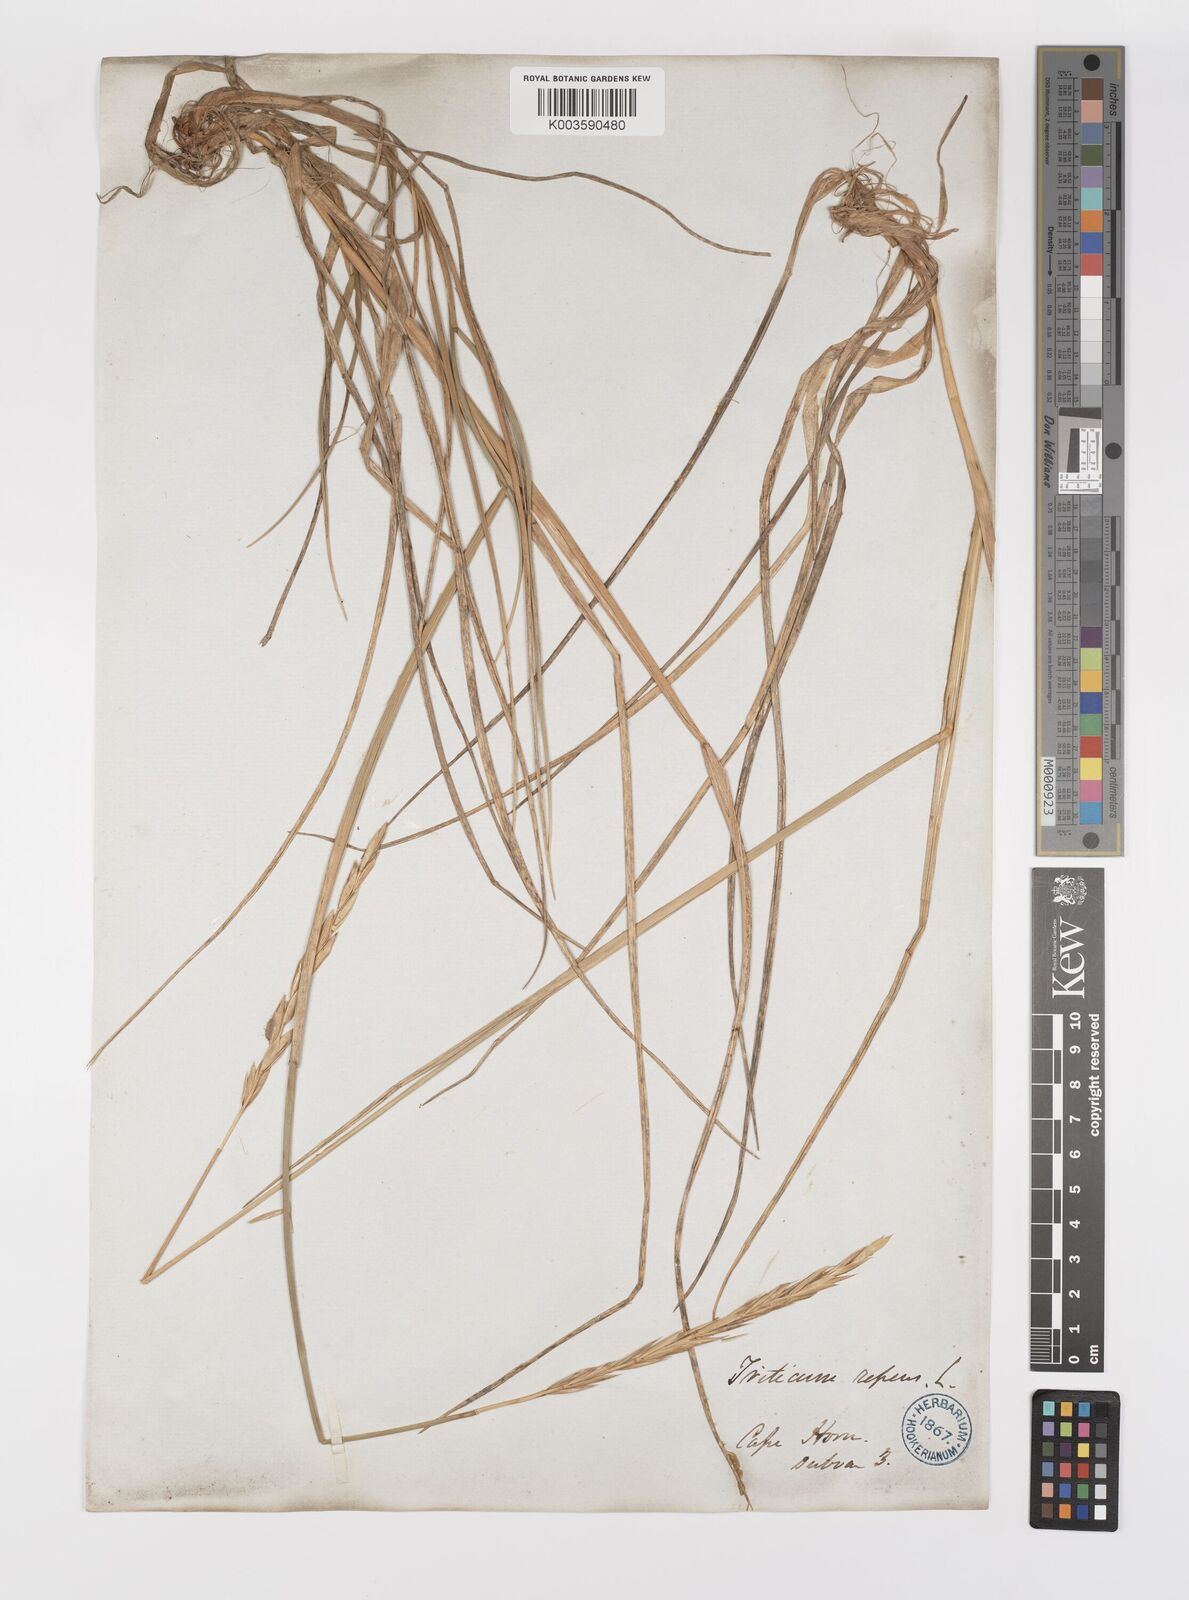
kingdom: Plantae
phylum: Tracheophyta
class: Liliopsida
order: Poales
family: Poaceae
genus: Elymus
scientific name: Elymus magellanicus
